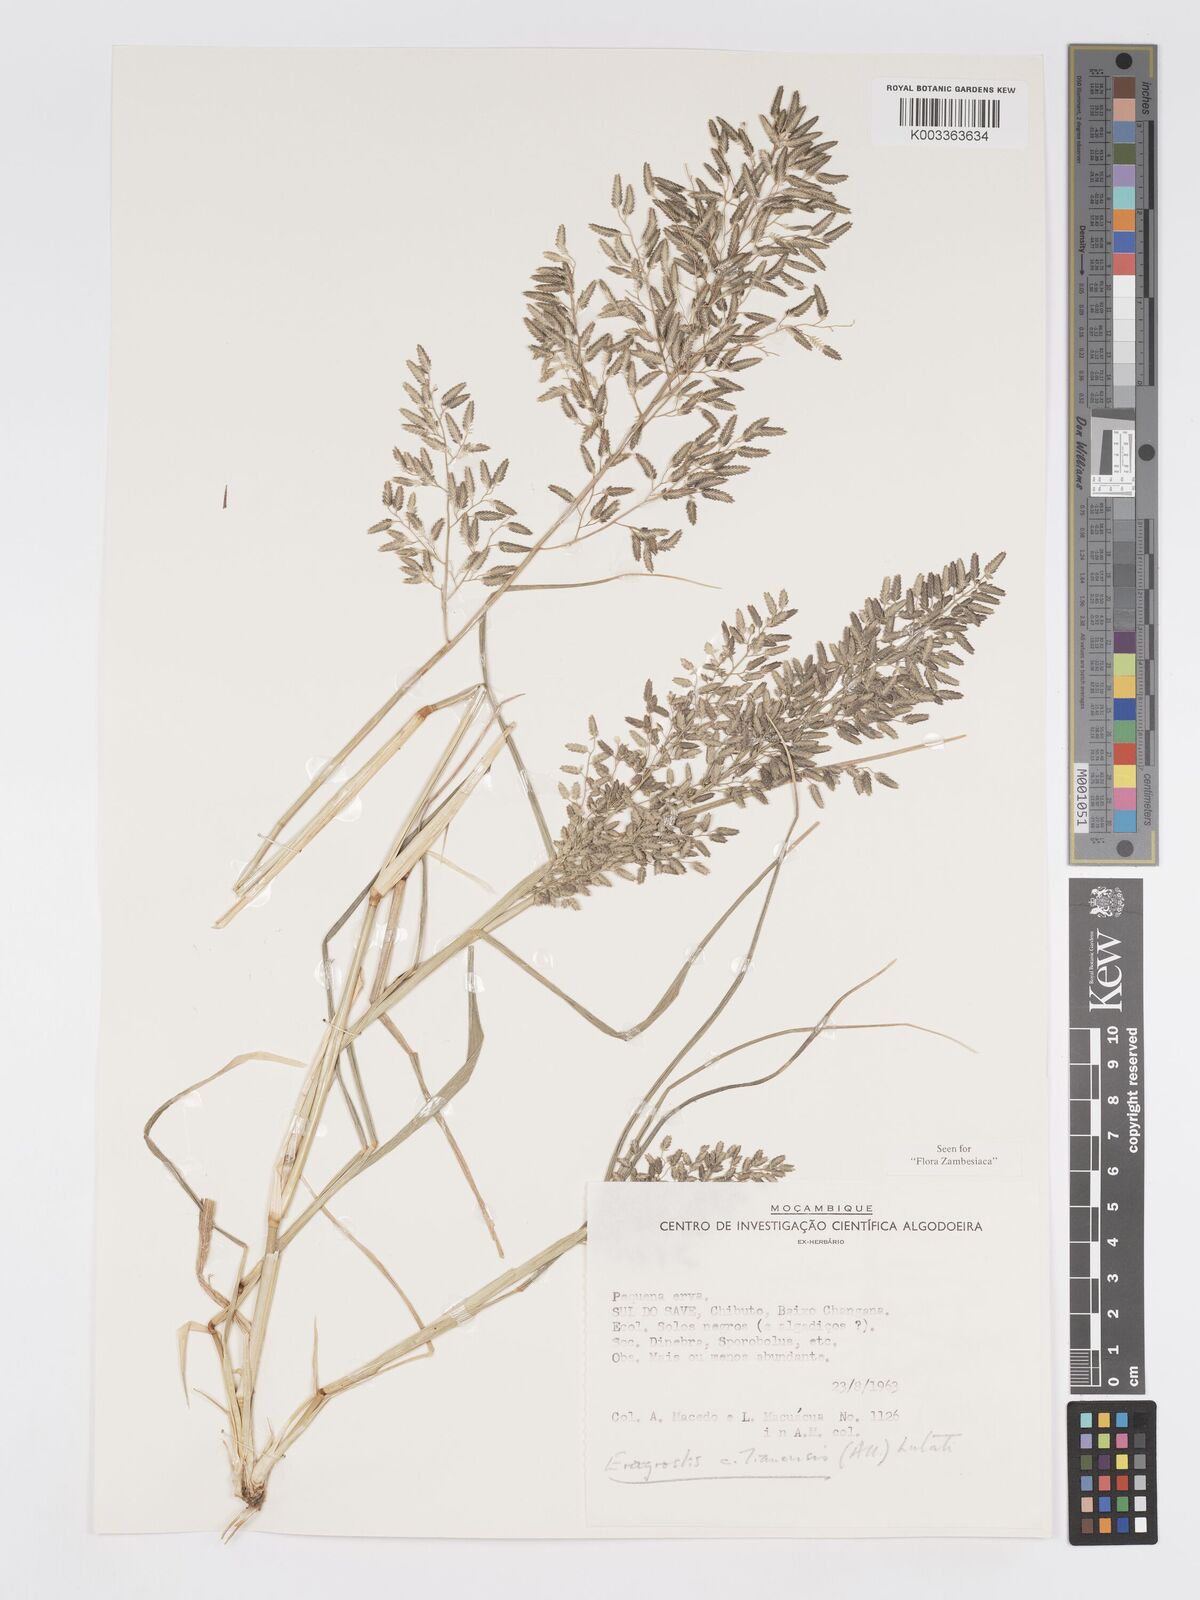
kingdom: Plantae
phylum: Tracheophyta
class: Liliopsida
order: Poales
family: Poaceae
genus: Eragrostis
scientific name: Eragrostis cilianensis
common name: Stinkgrass
